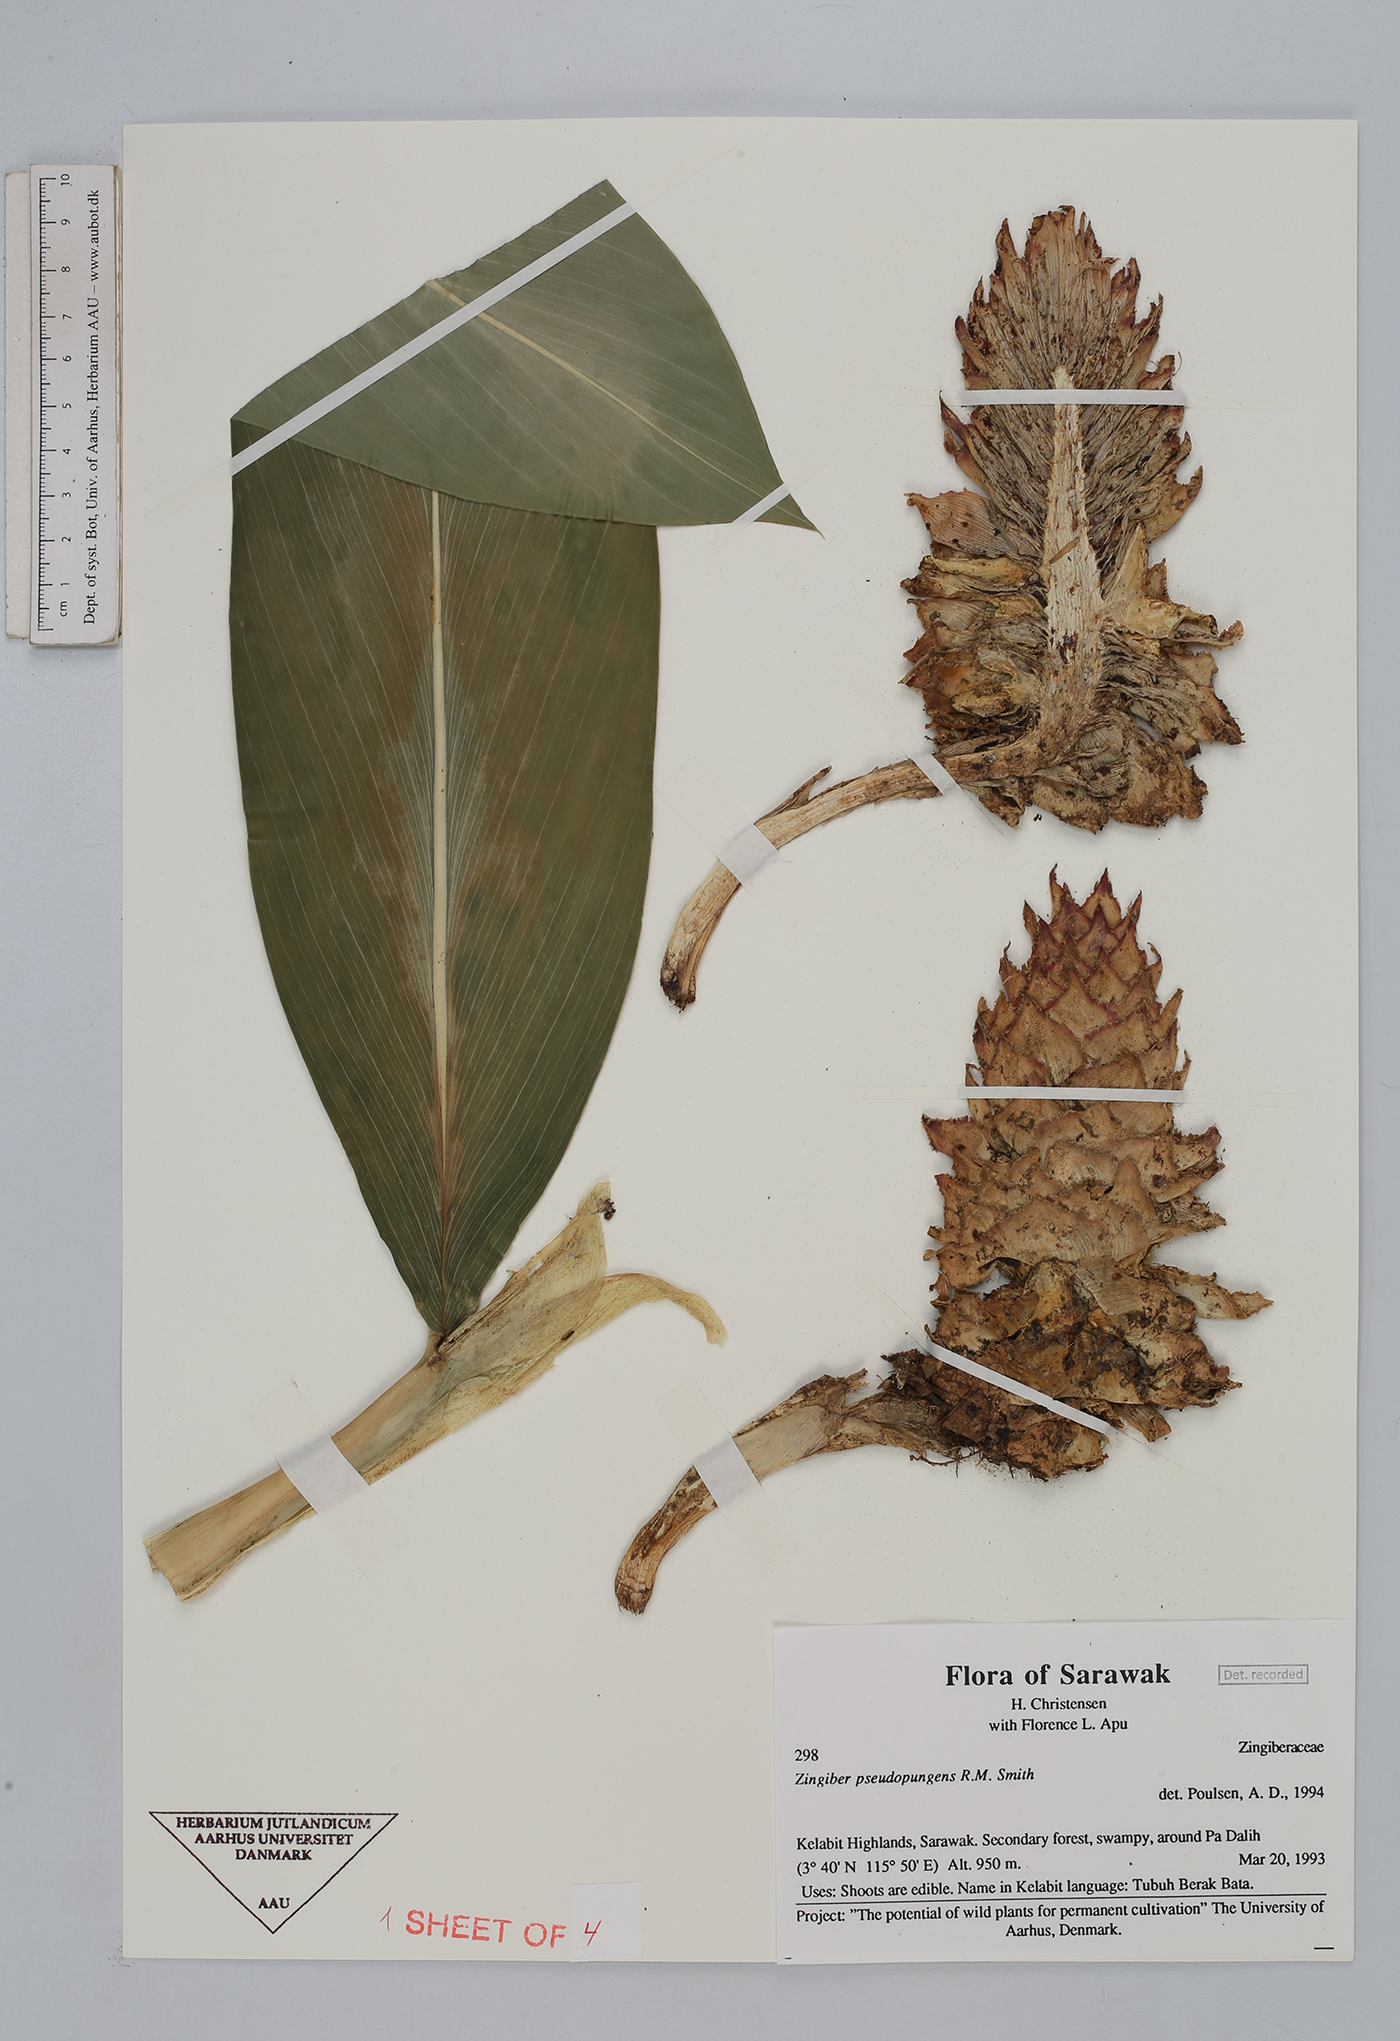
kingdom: Plantae
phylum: Tracheophyta
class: Liliopsida
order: Zingiberales
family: Zingiberaceae
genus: Zingiber
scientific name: Zingiber pseudopungens
